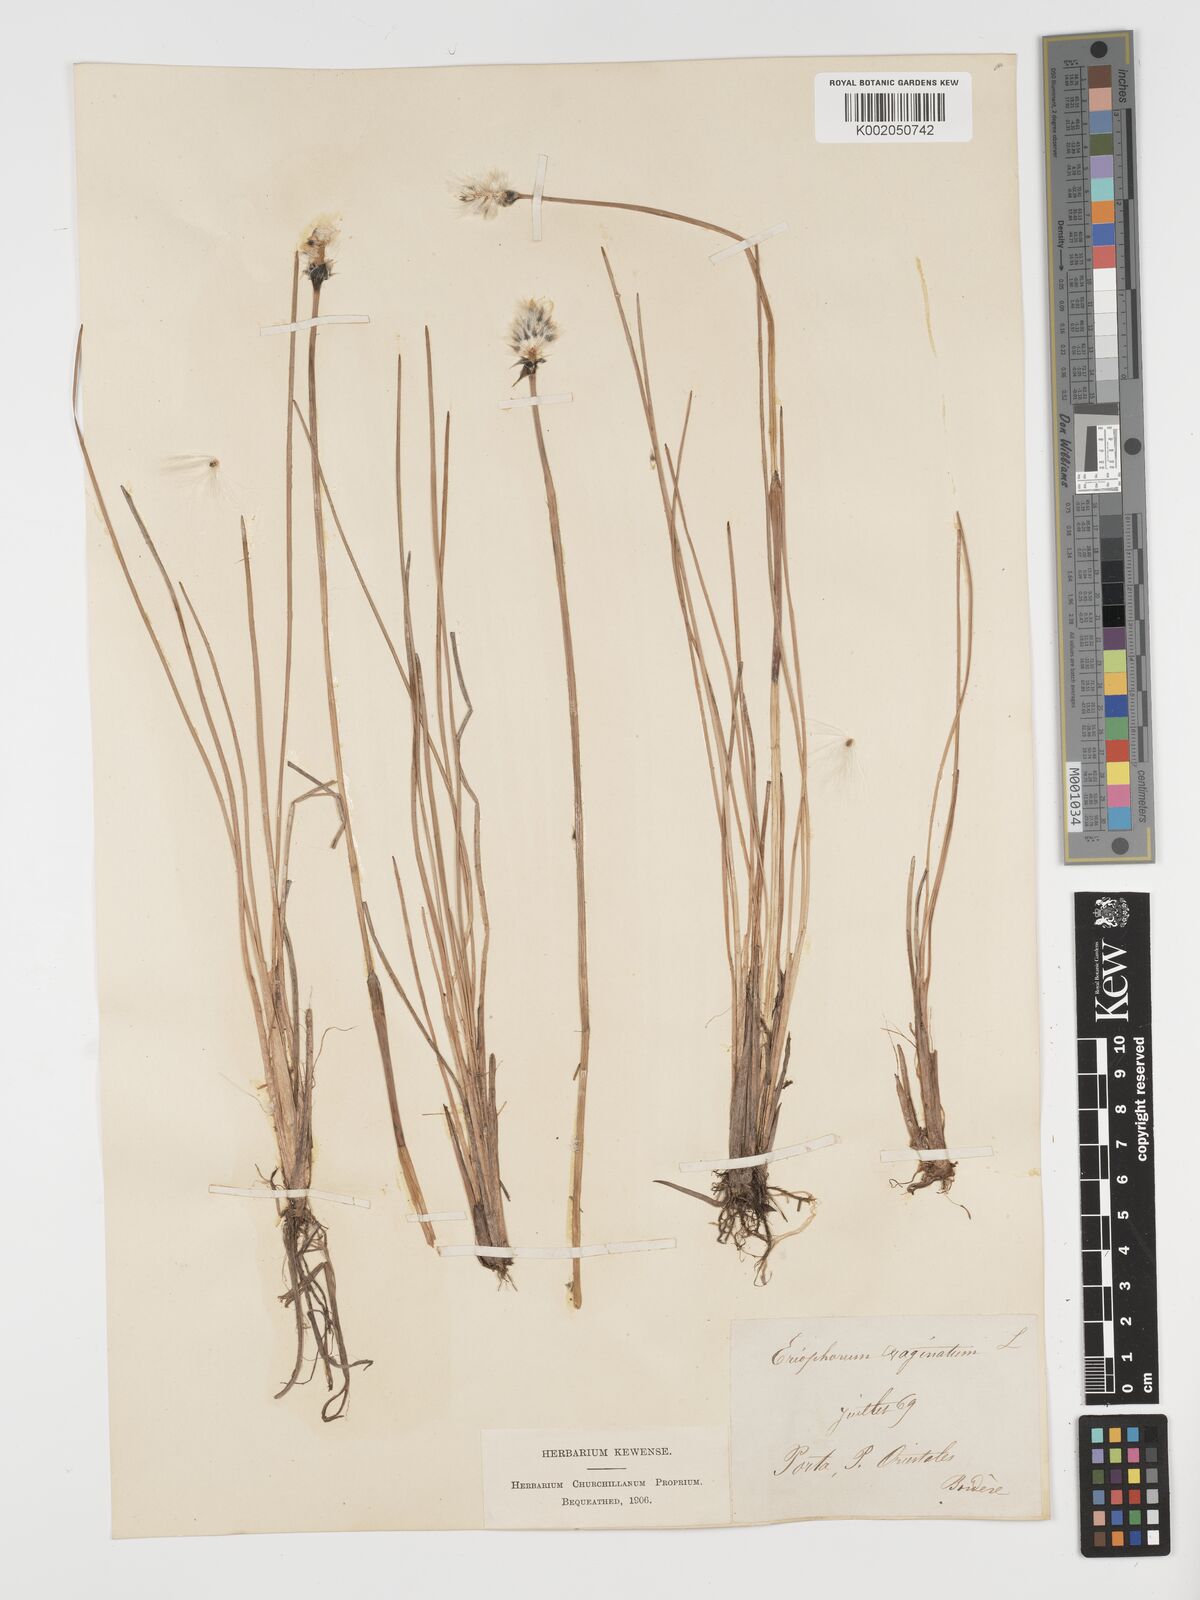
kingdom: Plantae
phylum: Tracheophyta
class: Liliopsida
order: Poales
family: Cyperaceae
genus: Eriophorum
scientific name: Eriophorum vaginatum
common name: Hare's-tail cottongrass
